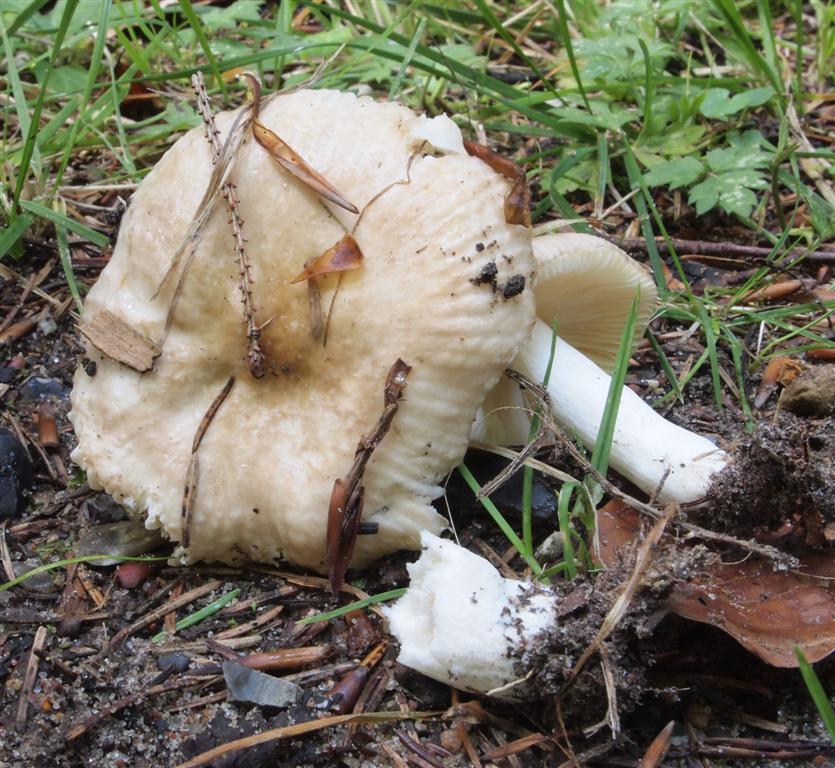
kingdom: Fungi
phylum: Basidiomycota
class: Agaricomycetes
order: Russulales
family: Russulaceae
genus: Russula
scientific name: Russula nauseosa
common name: spinkel skørhat
